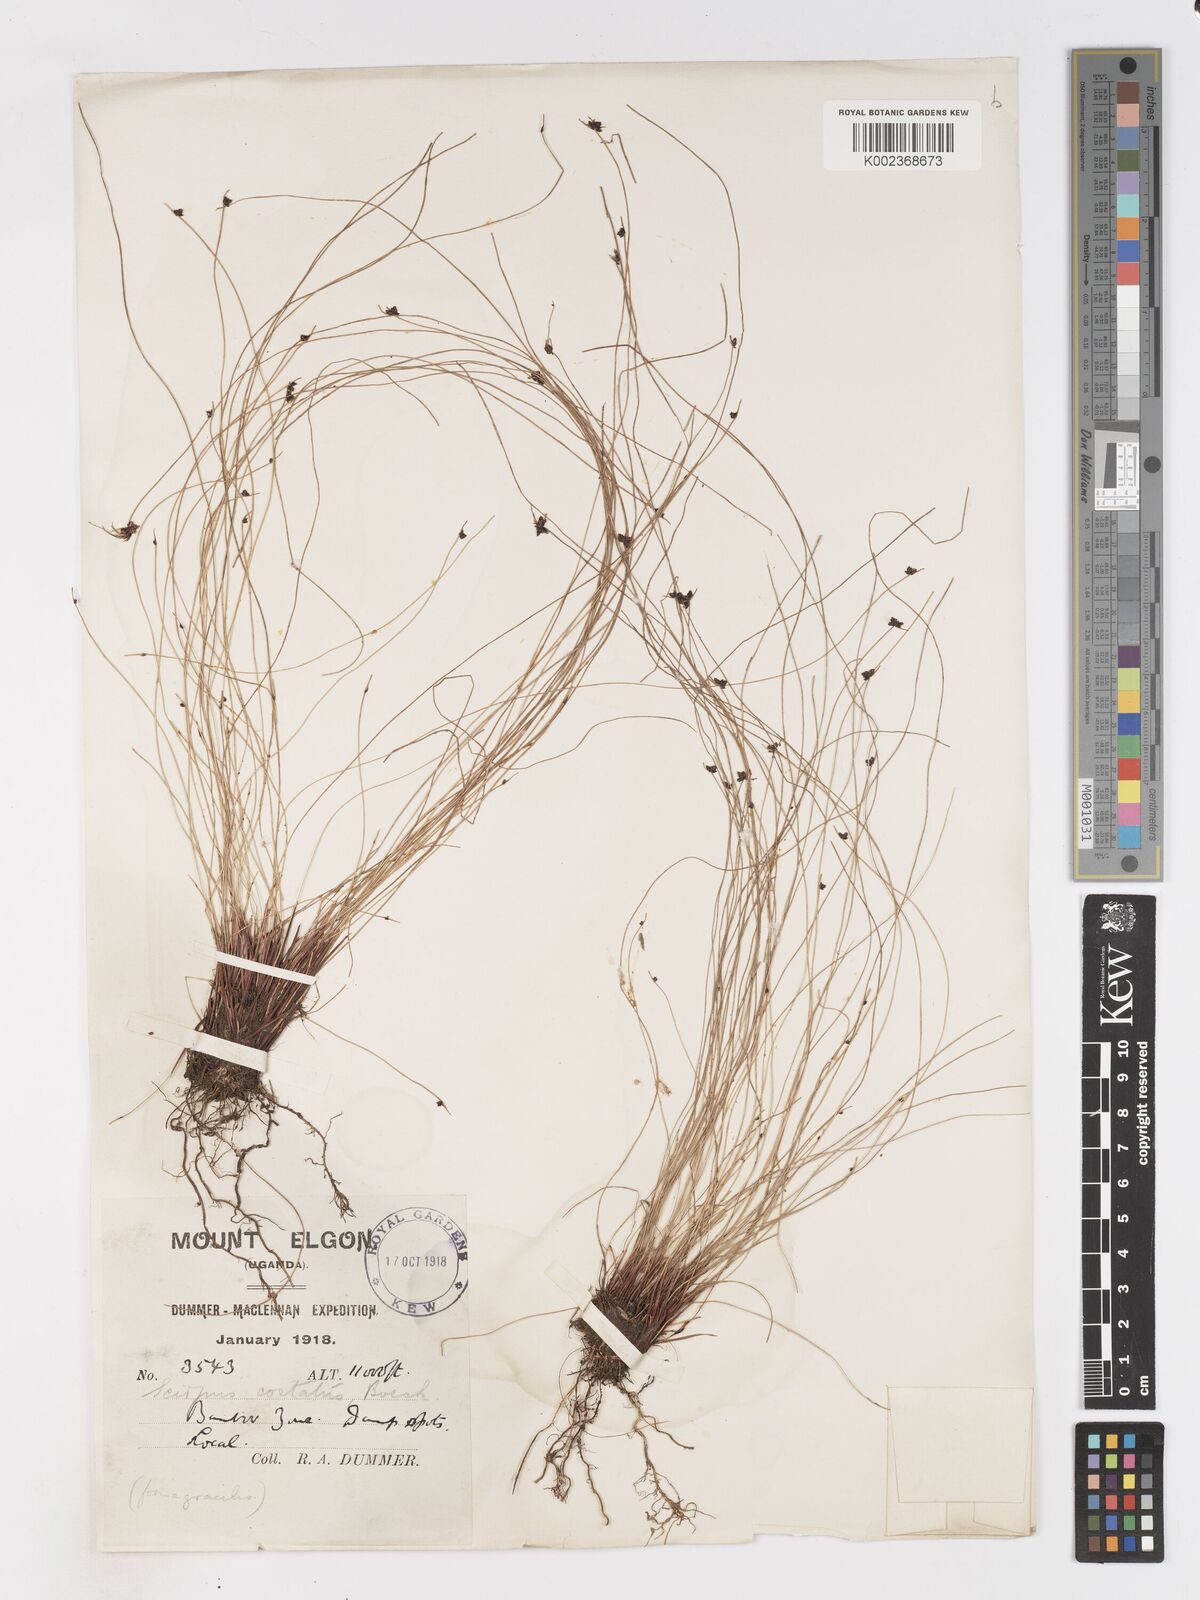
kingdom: Plantae
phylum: Tracheophyta
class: Liliopsida
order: Poales
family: Cyperaceae
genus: Isolepis
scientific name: Isolepis costata
